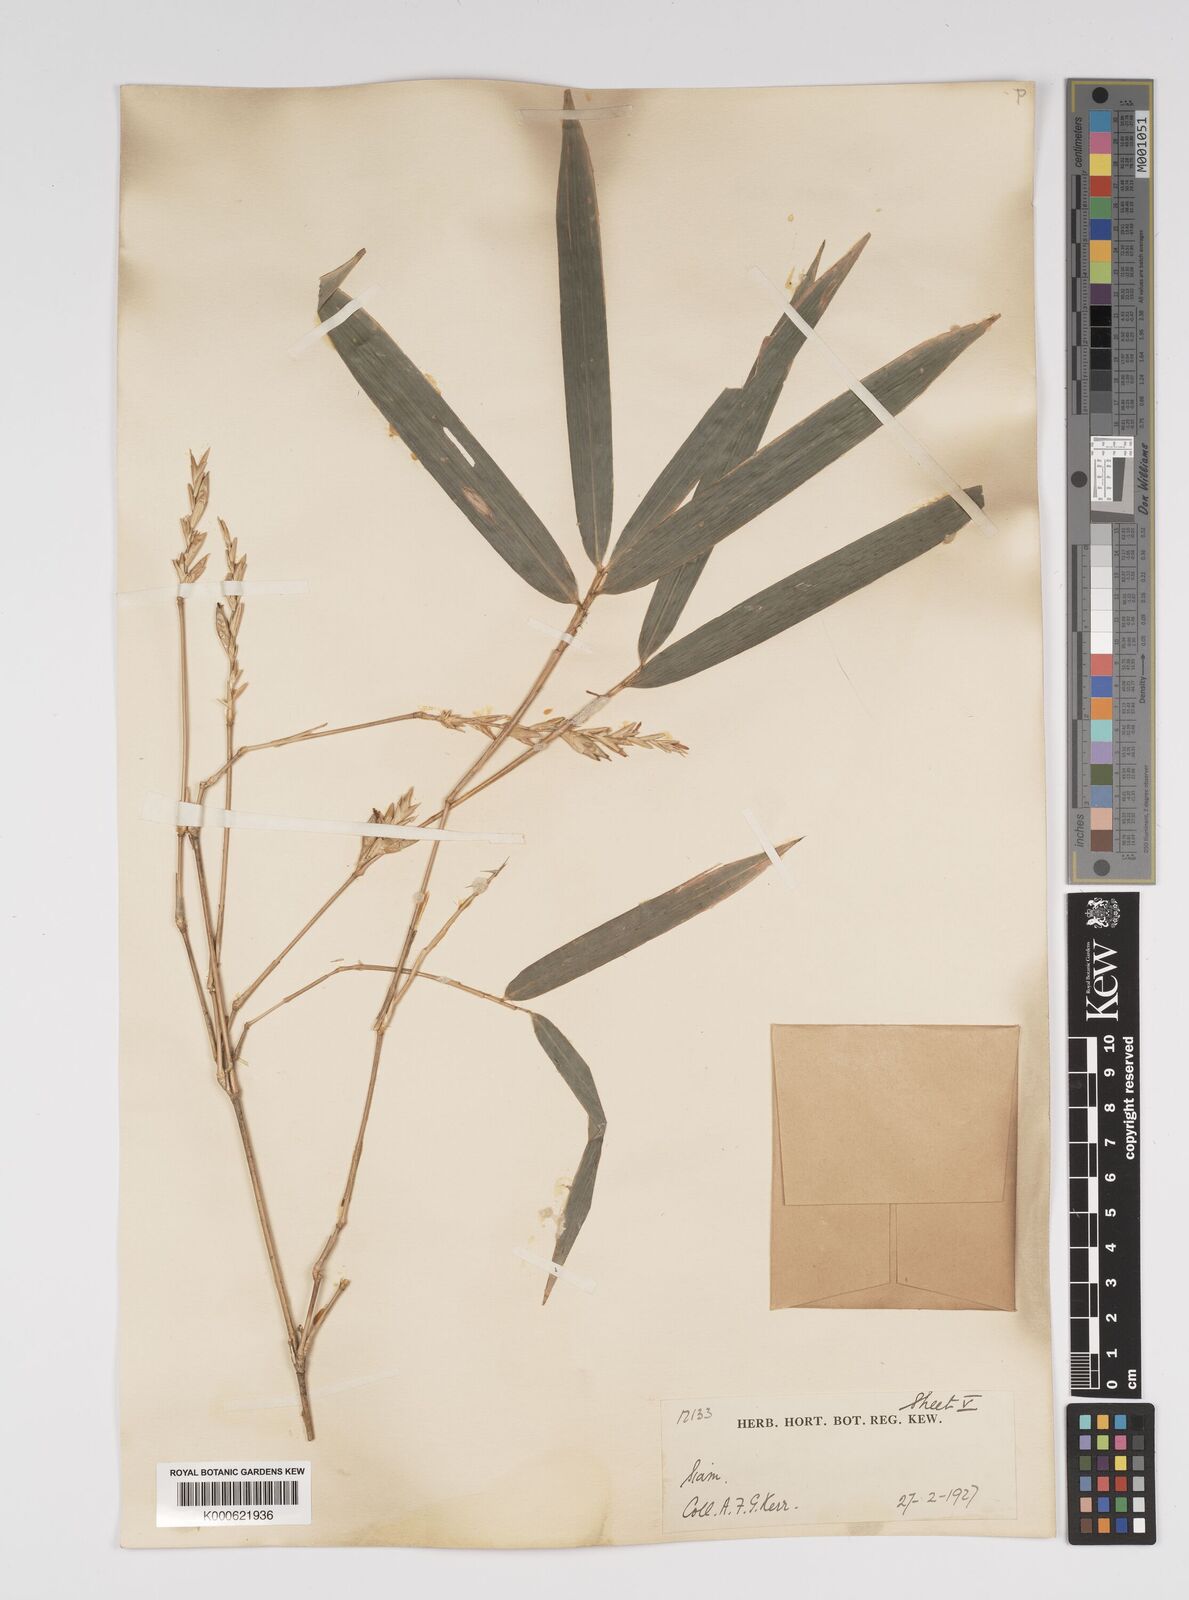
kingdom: Plantae
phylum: Tracheophyta
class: Liliopsida
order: Poales
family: Poaceae
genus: Bambusa
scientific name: Bambusa
